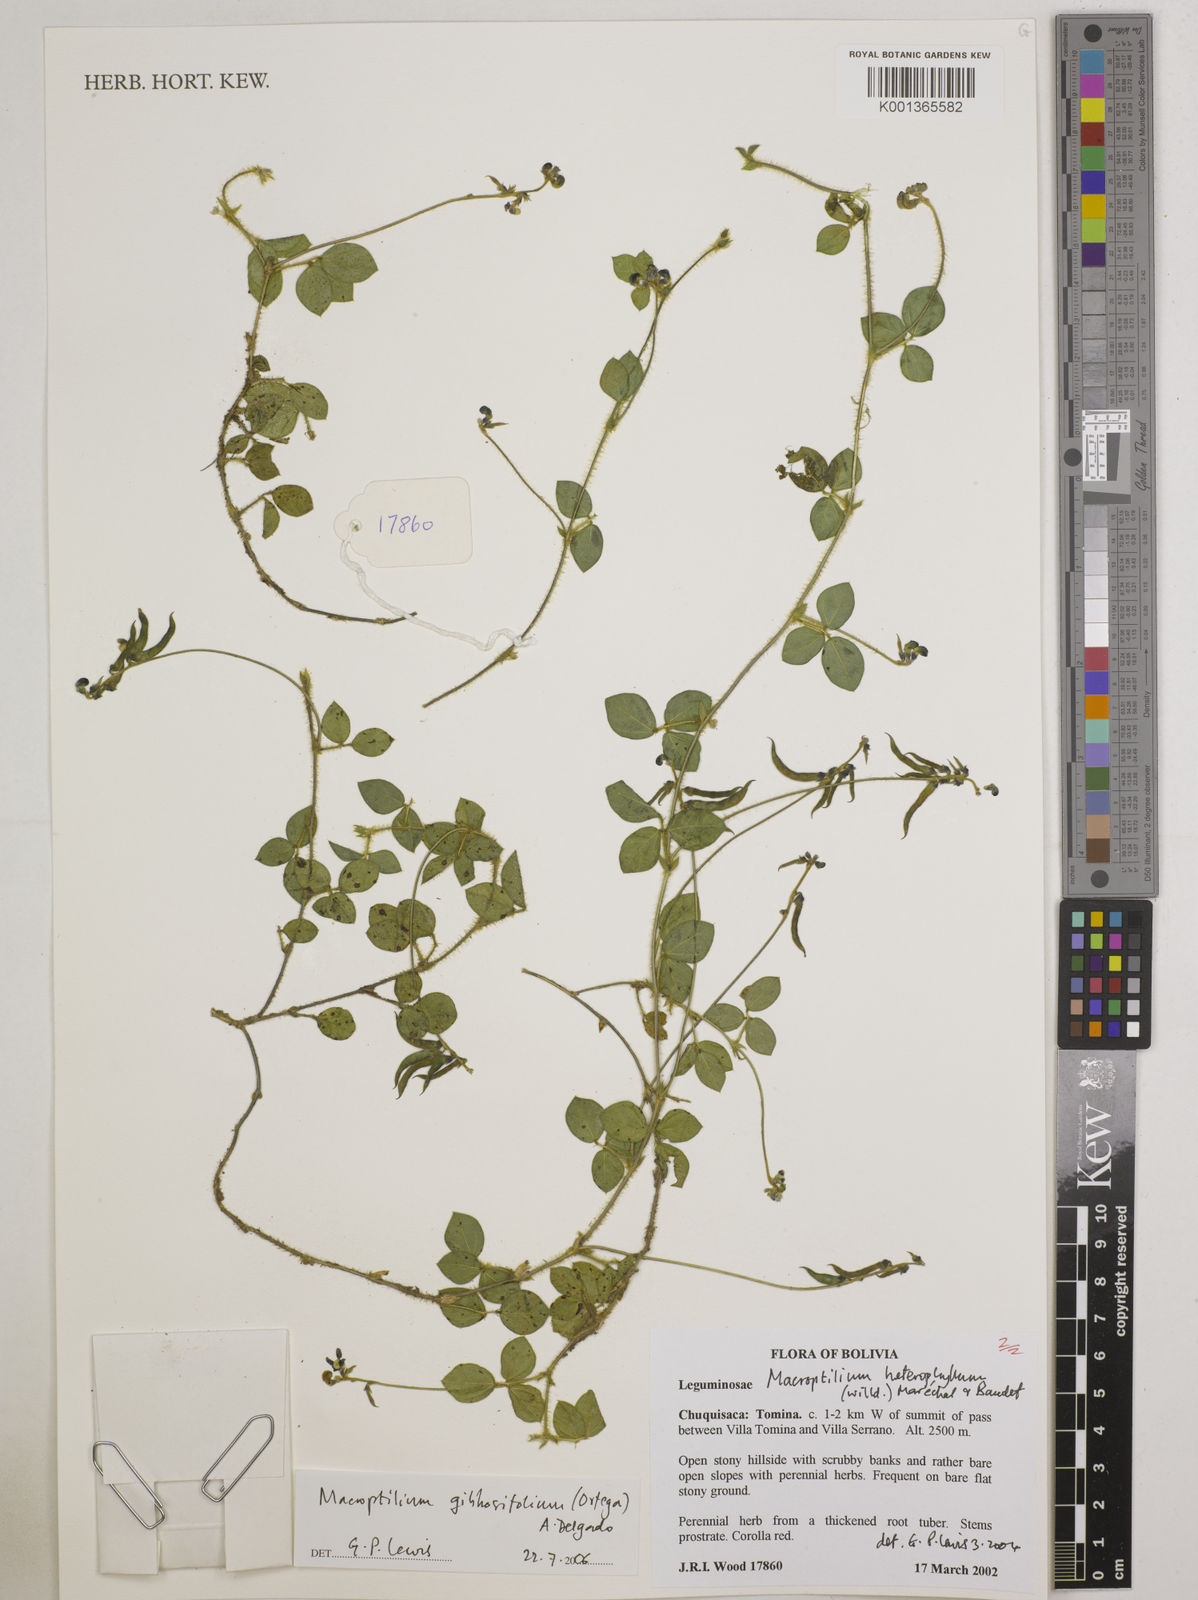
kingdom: Plantae
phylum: Tracheophyta
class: Magnoliopsida
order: Fabales
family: Fabaceae
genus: Macroptilium
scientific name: Macroptilium gibbosifolium
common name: Variableleaf bushbean
